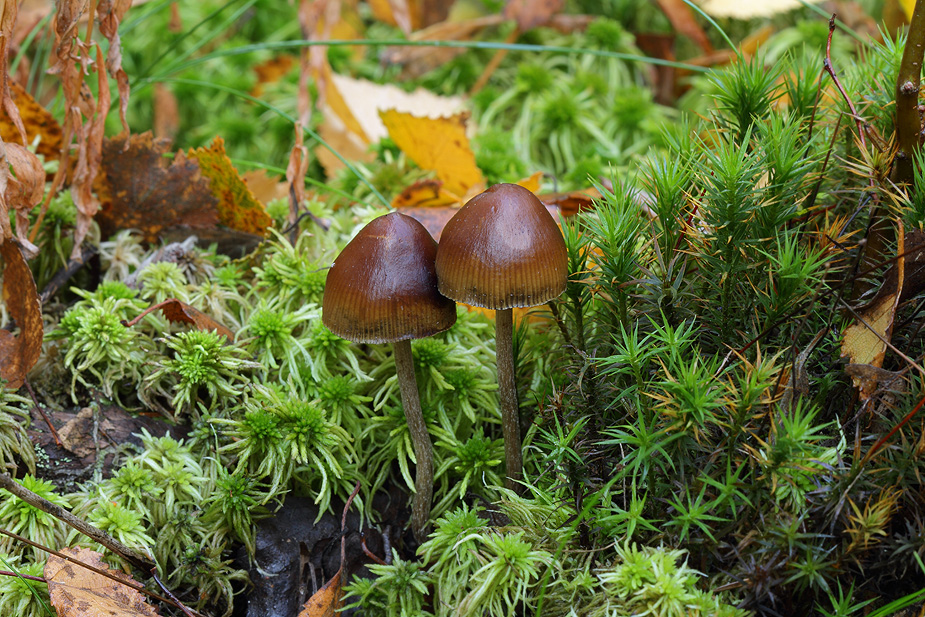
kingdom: Fungi
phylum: Basidiomycota
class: Agaricomycetes
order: Agaricales
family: Hymenogastraceae
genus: Psilocybe
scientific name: Psilocybe fuscofulva
